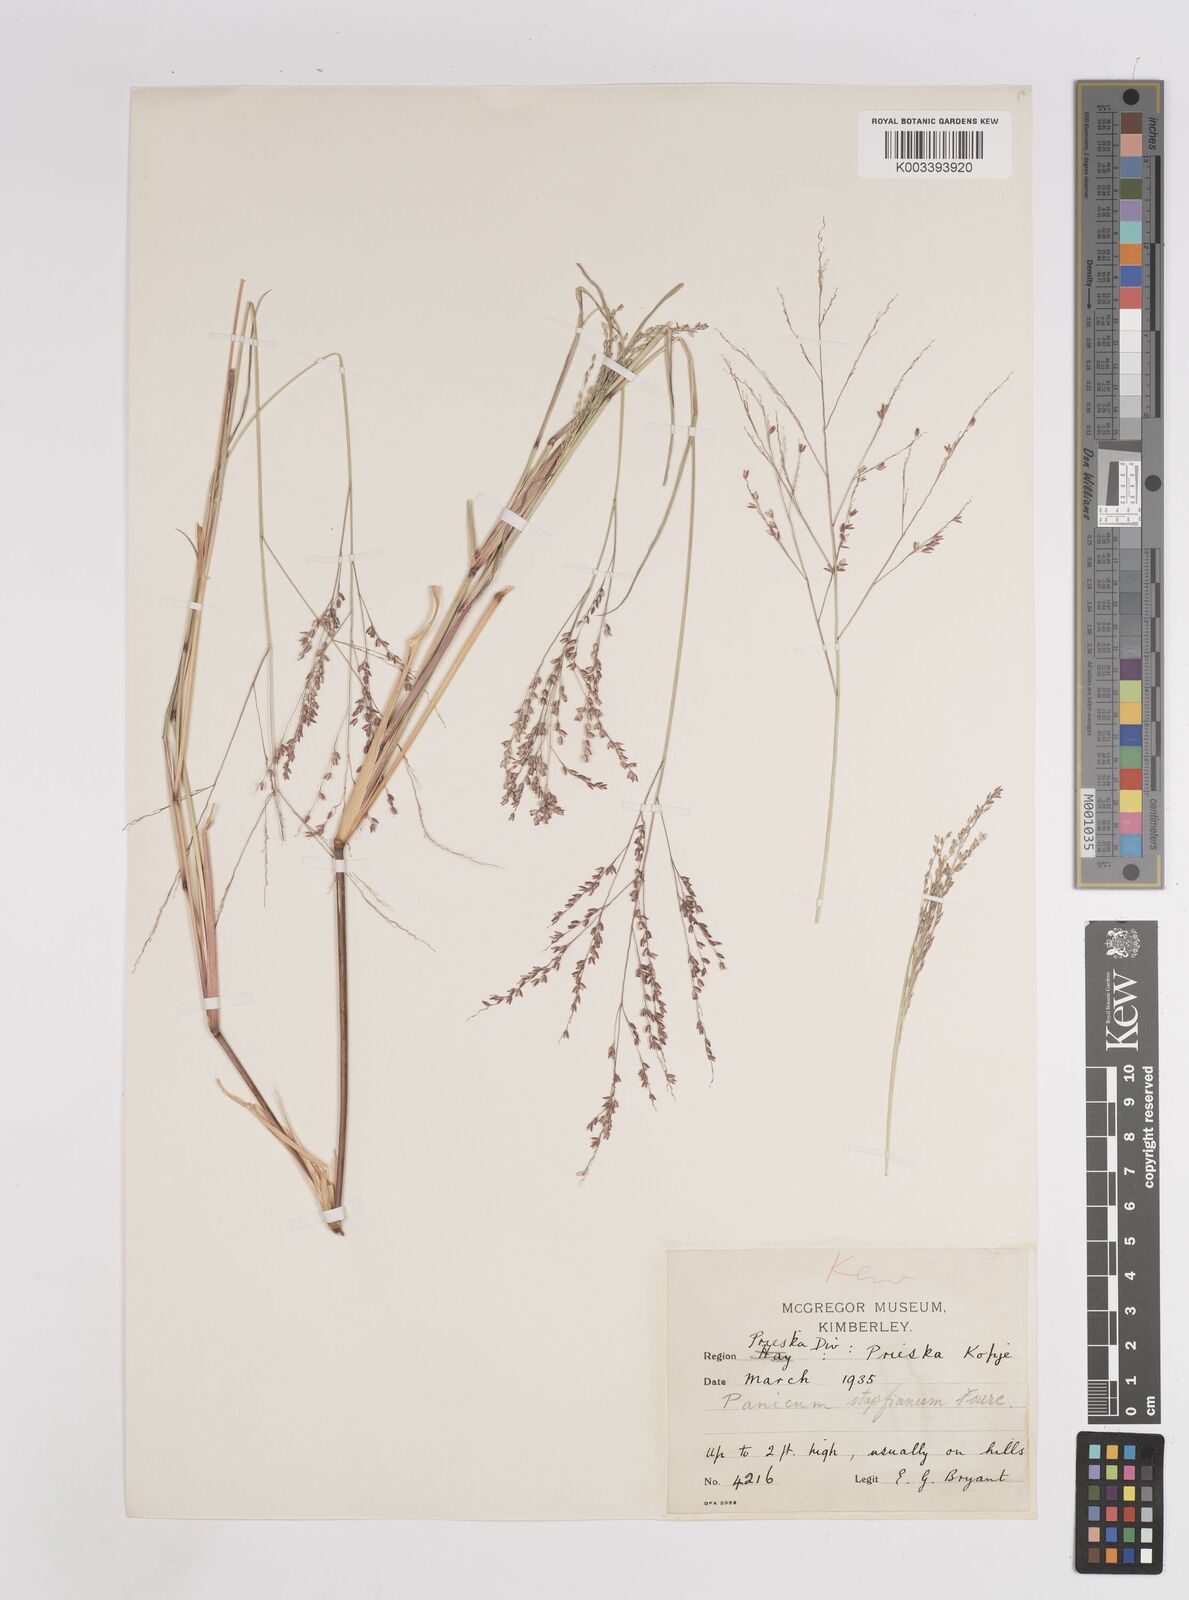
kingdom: Plantae
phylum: Tracheophyta
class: Liliopsida
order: Poales
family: Poaceae
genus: Panicum
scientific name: Panicum stapfianum
